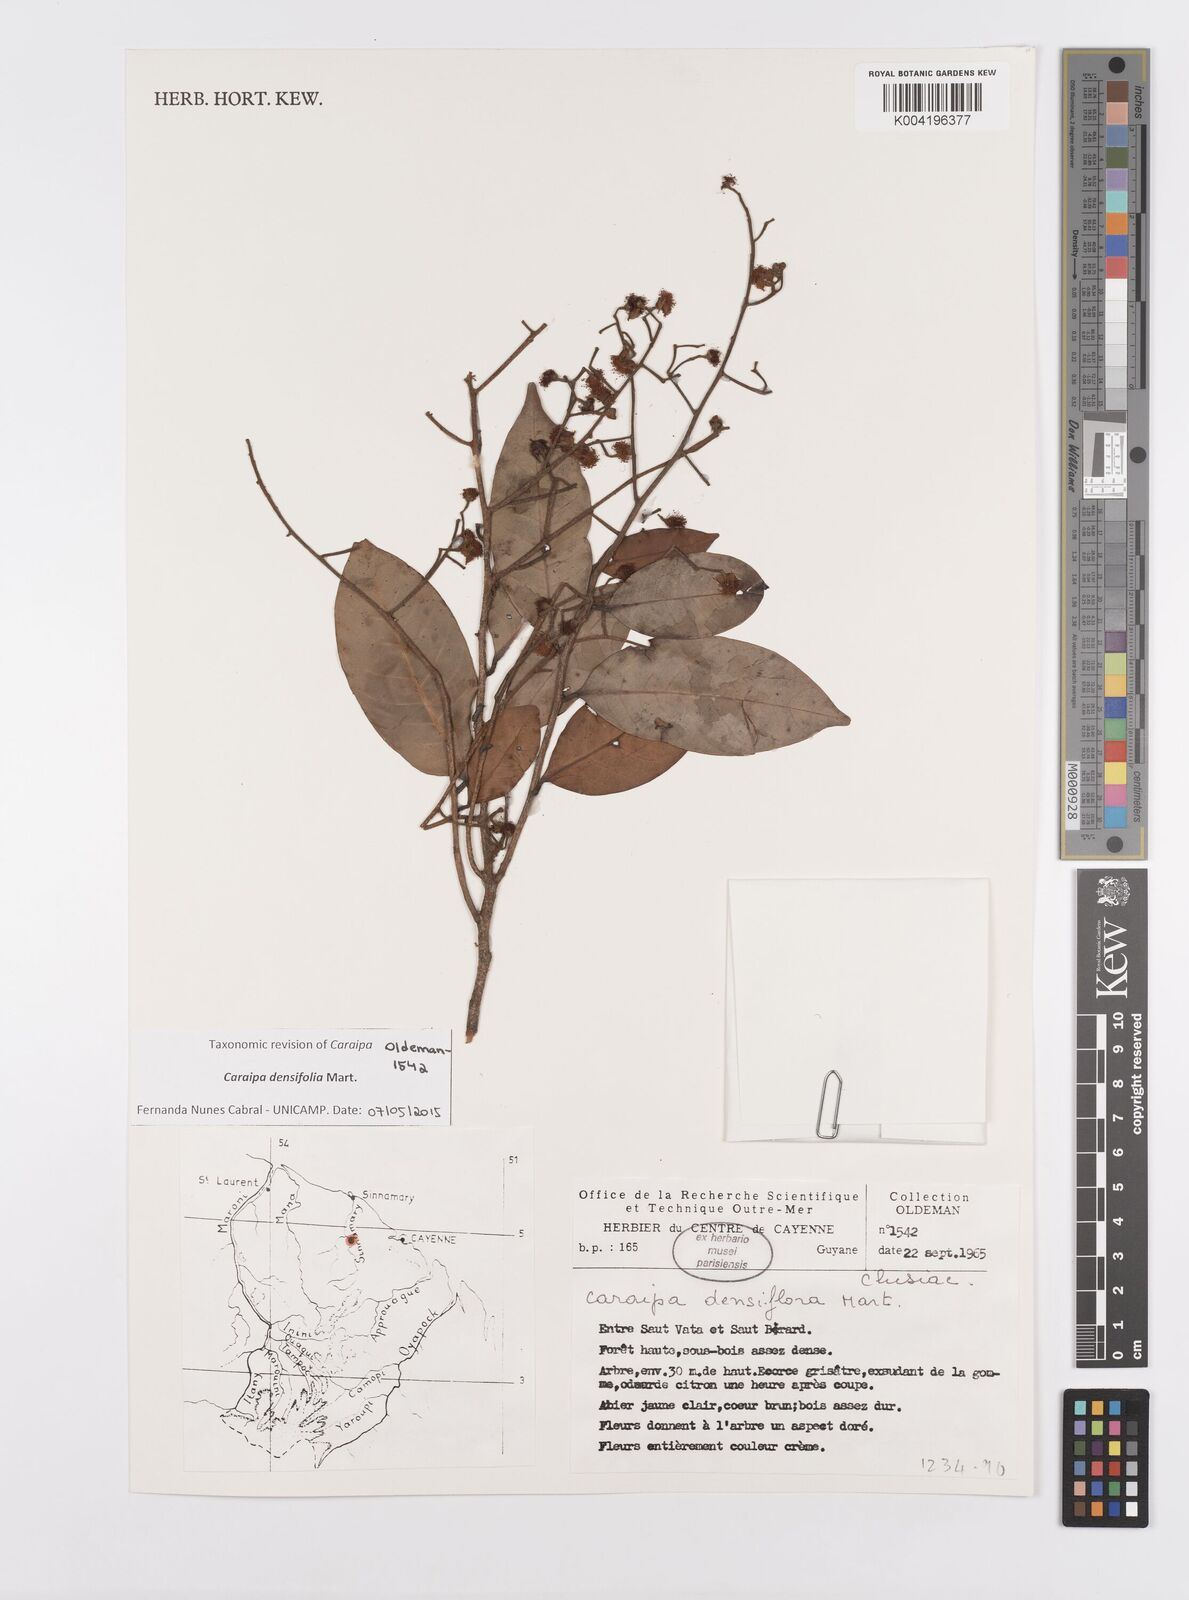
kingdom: Plantae
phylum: Tracheophyta
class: Magnoliopsida
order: Malpighiales
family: Calophyllaceae
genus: Caraipa
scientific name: Caraipa densifolia
